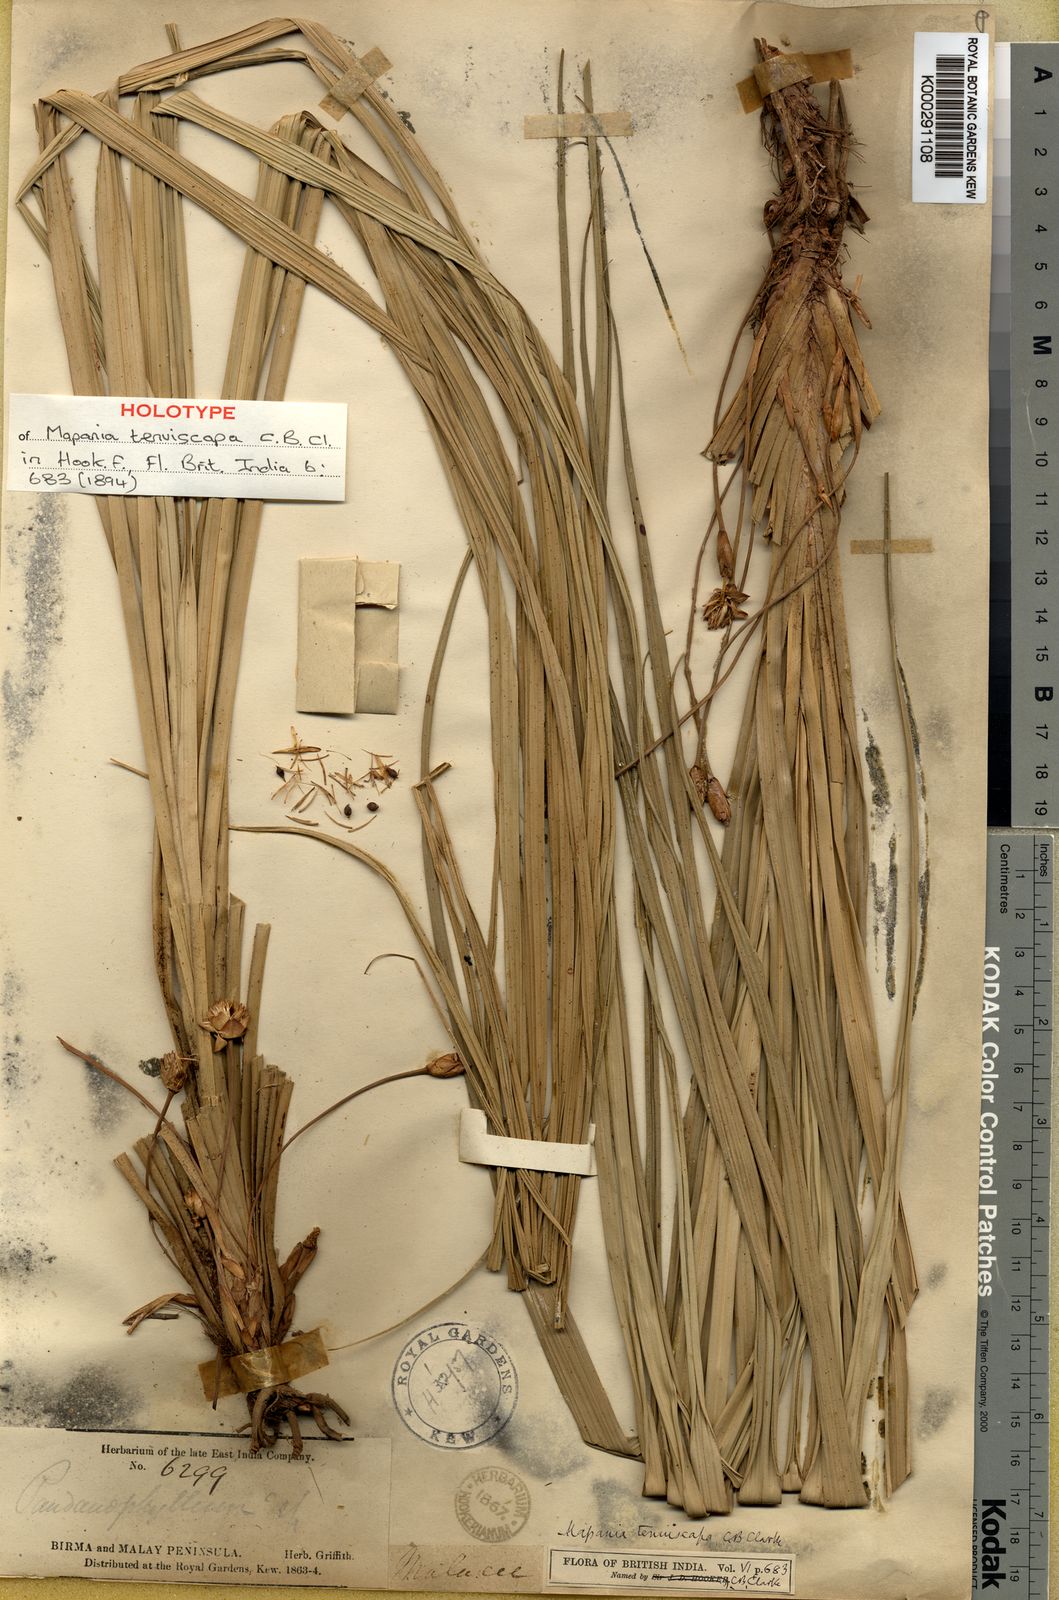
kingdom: Plantae
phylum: Tracheophyta
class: Liliopsida
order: Poales
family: Cyperaceae
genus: Mapania
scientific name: Mapania tenuiscapa
